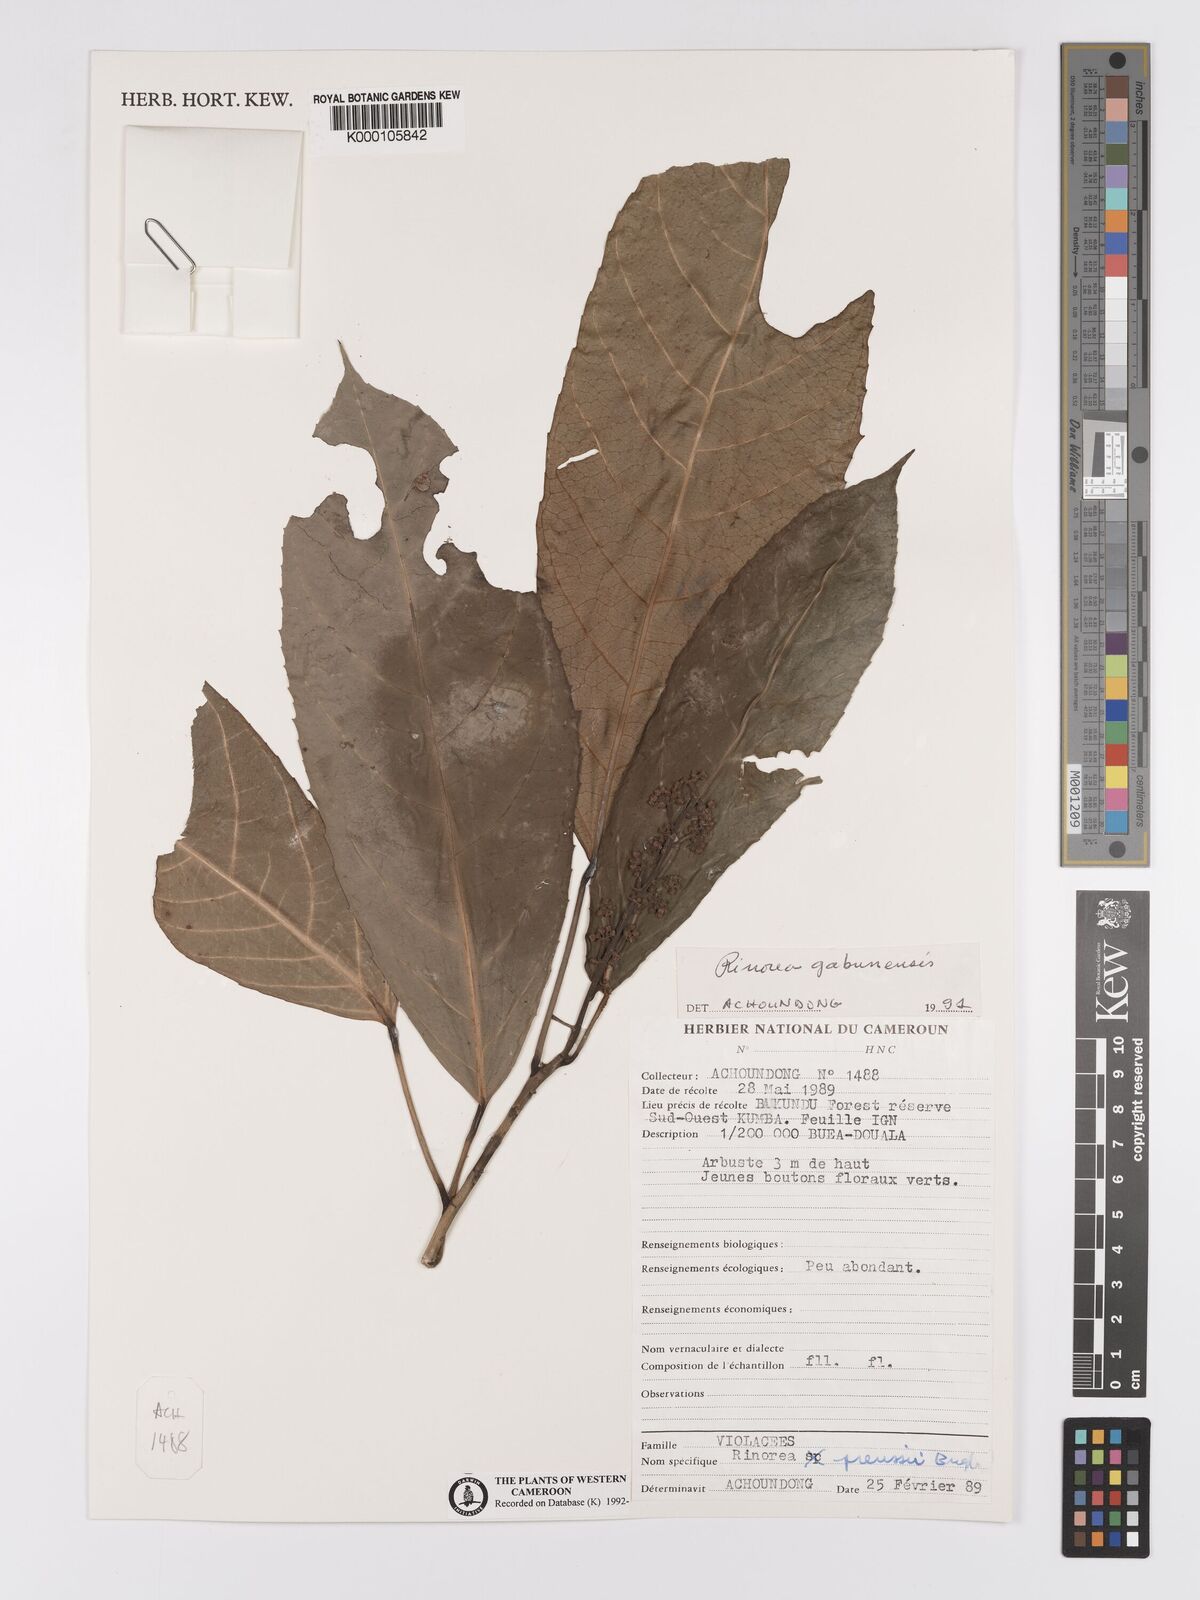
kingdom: Plantae
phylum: Tracheophyta
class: Magnoliopsida
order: Malpighiales
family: Violaceae
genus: Rinorea
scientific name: Rinorea gabunensis
